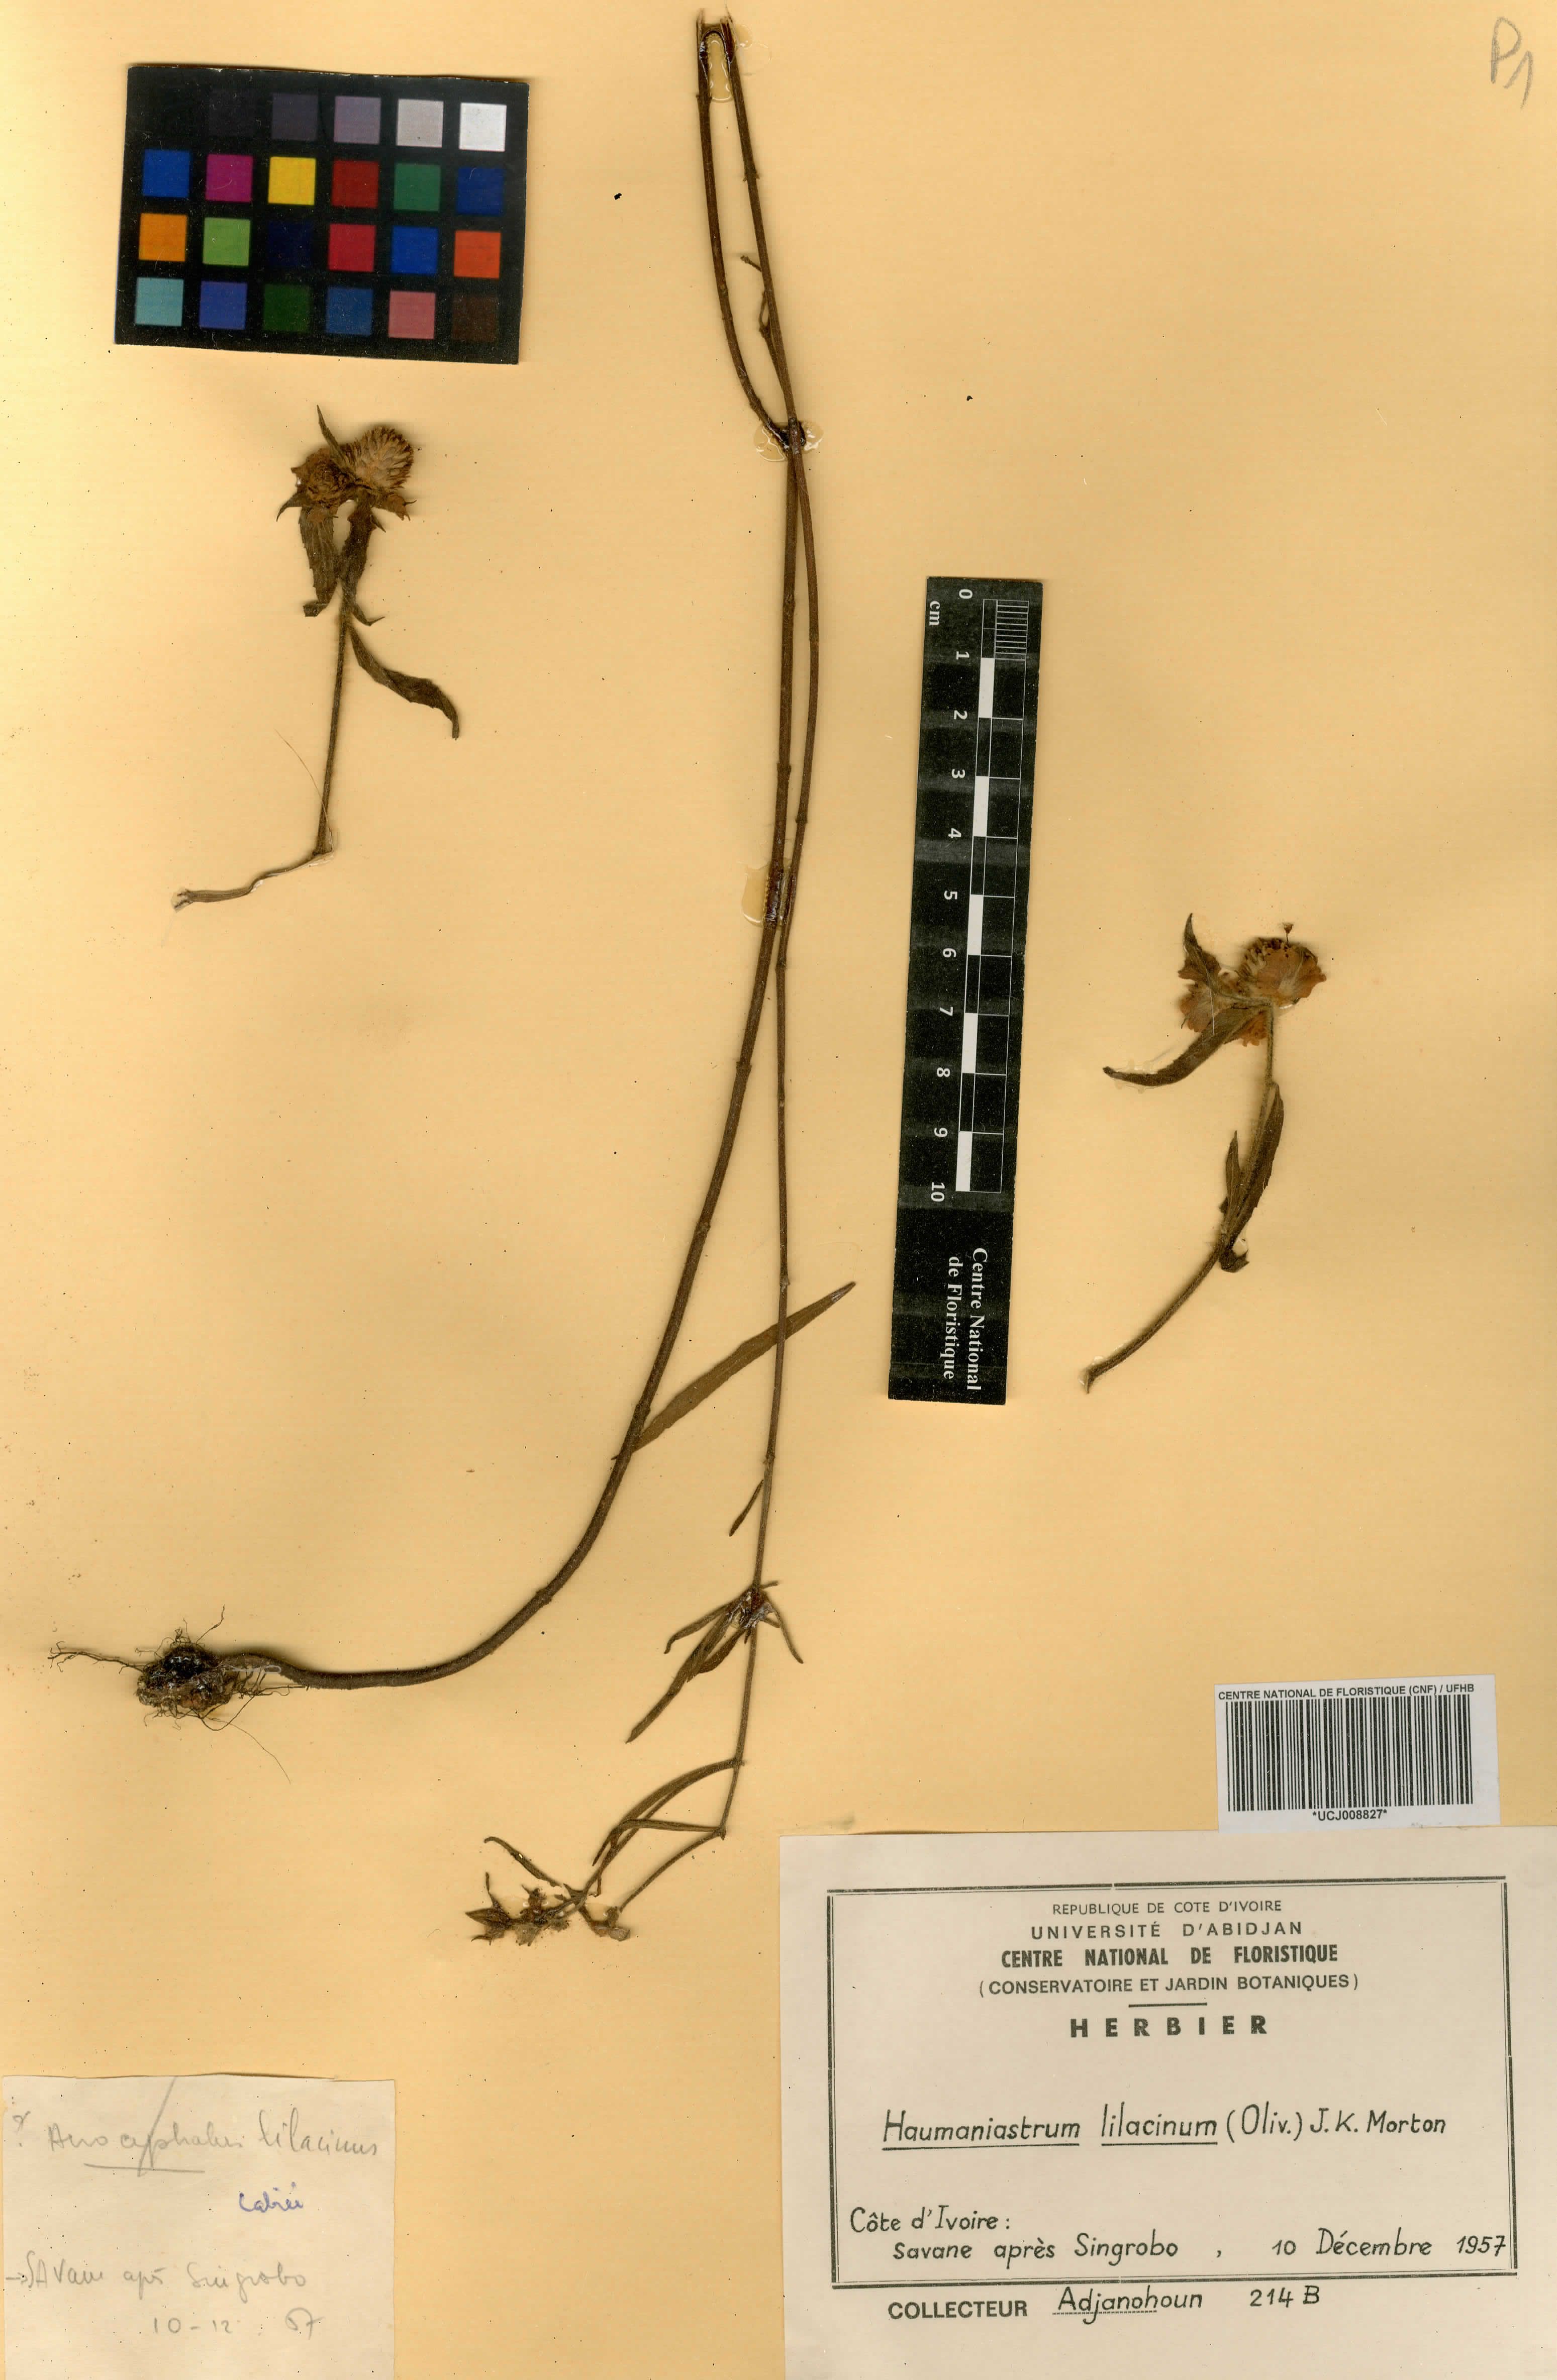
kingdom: Plantae
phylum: Tracheophyta
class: Magnoliopsida
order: Lamiales
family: Lamiaceae
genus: Haumaniastrum
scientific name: Haumaniastrum caeruleum
